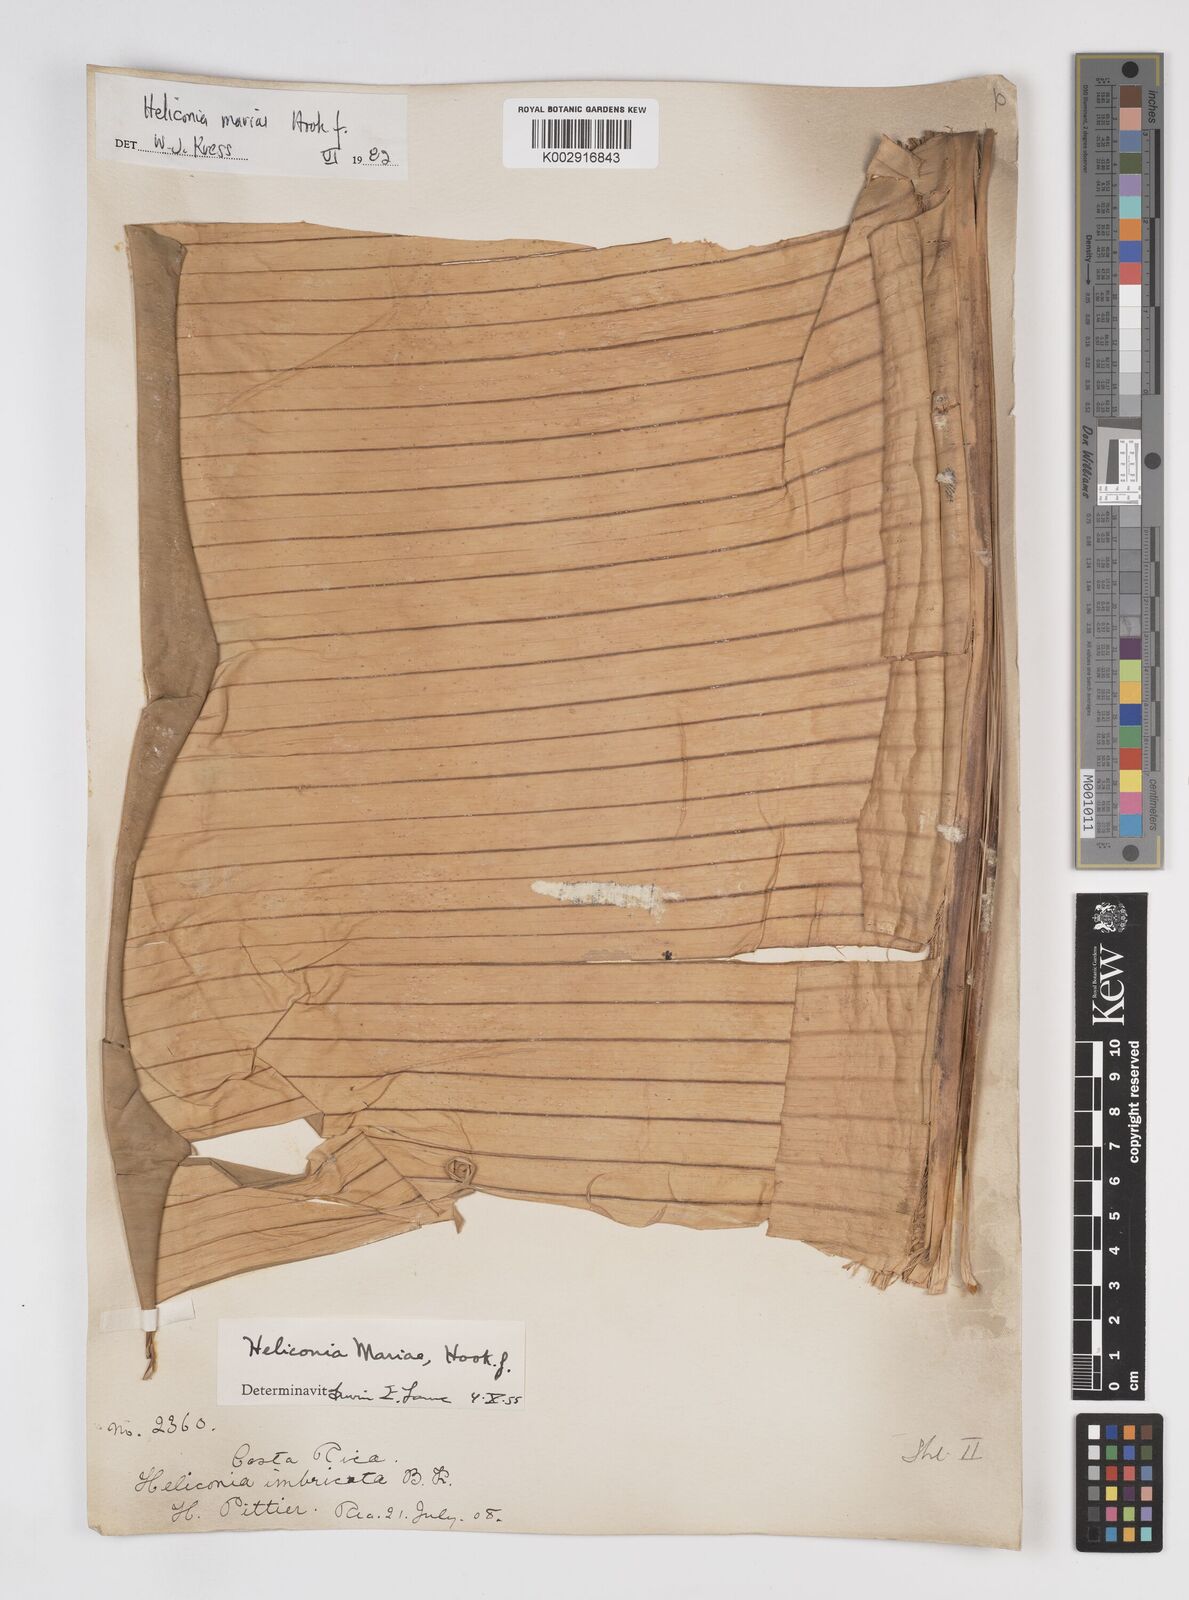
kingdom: Plantae
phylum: Tracheophyta
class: Liliopsida
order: Zingiberales
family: Heliconiaceae
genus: Heliconia
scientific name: Heliconia mariae
